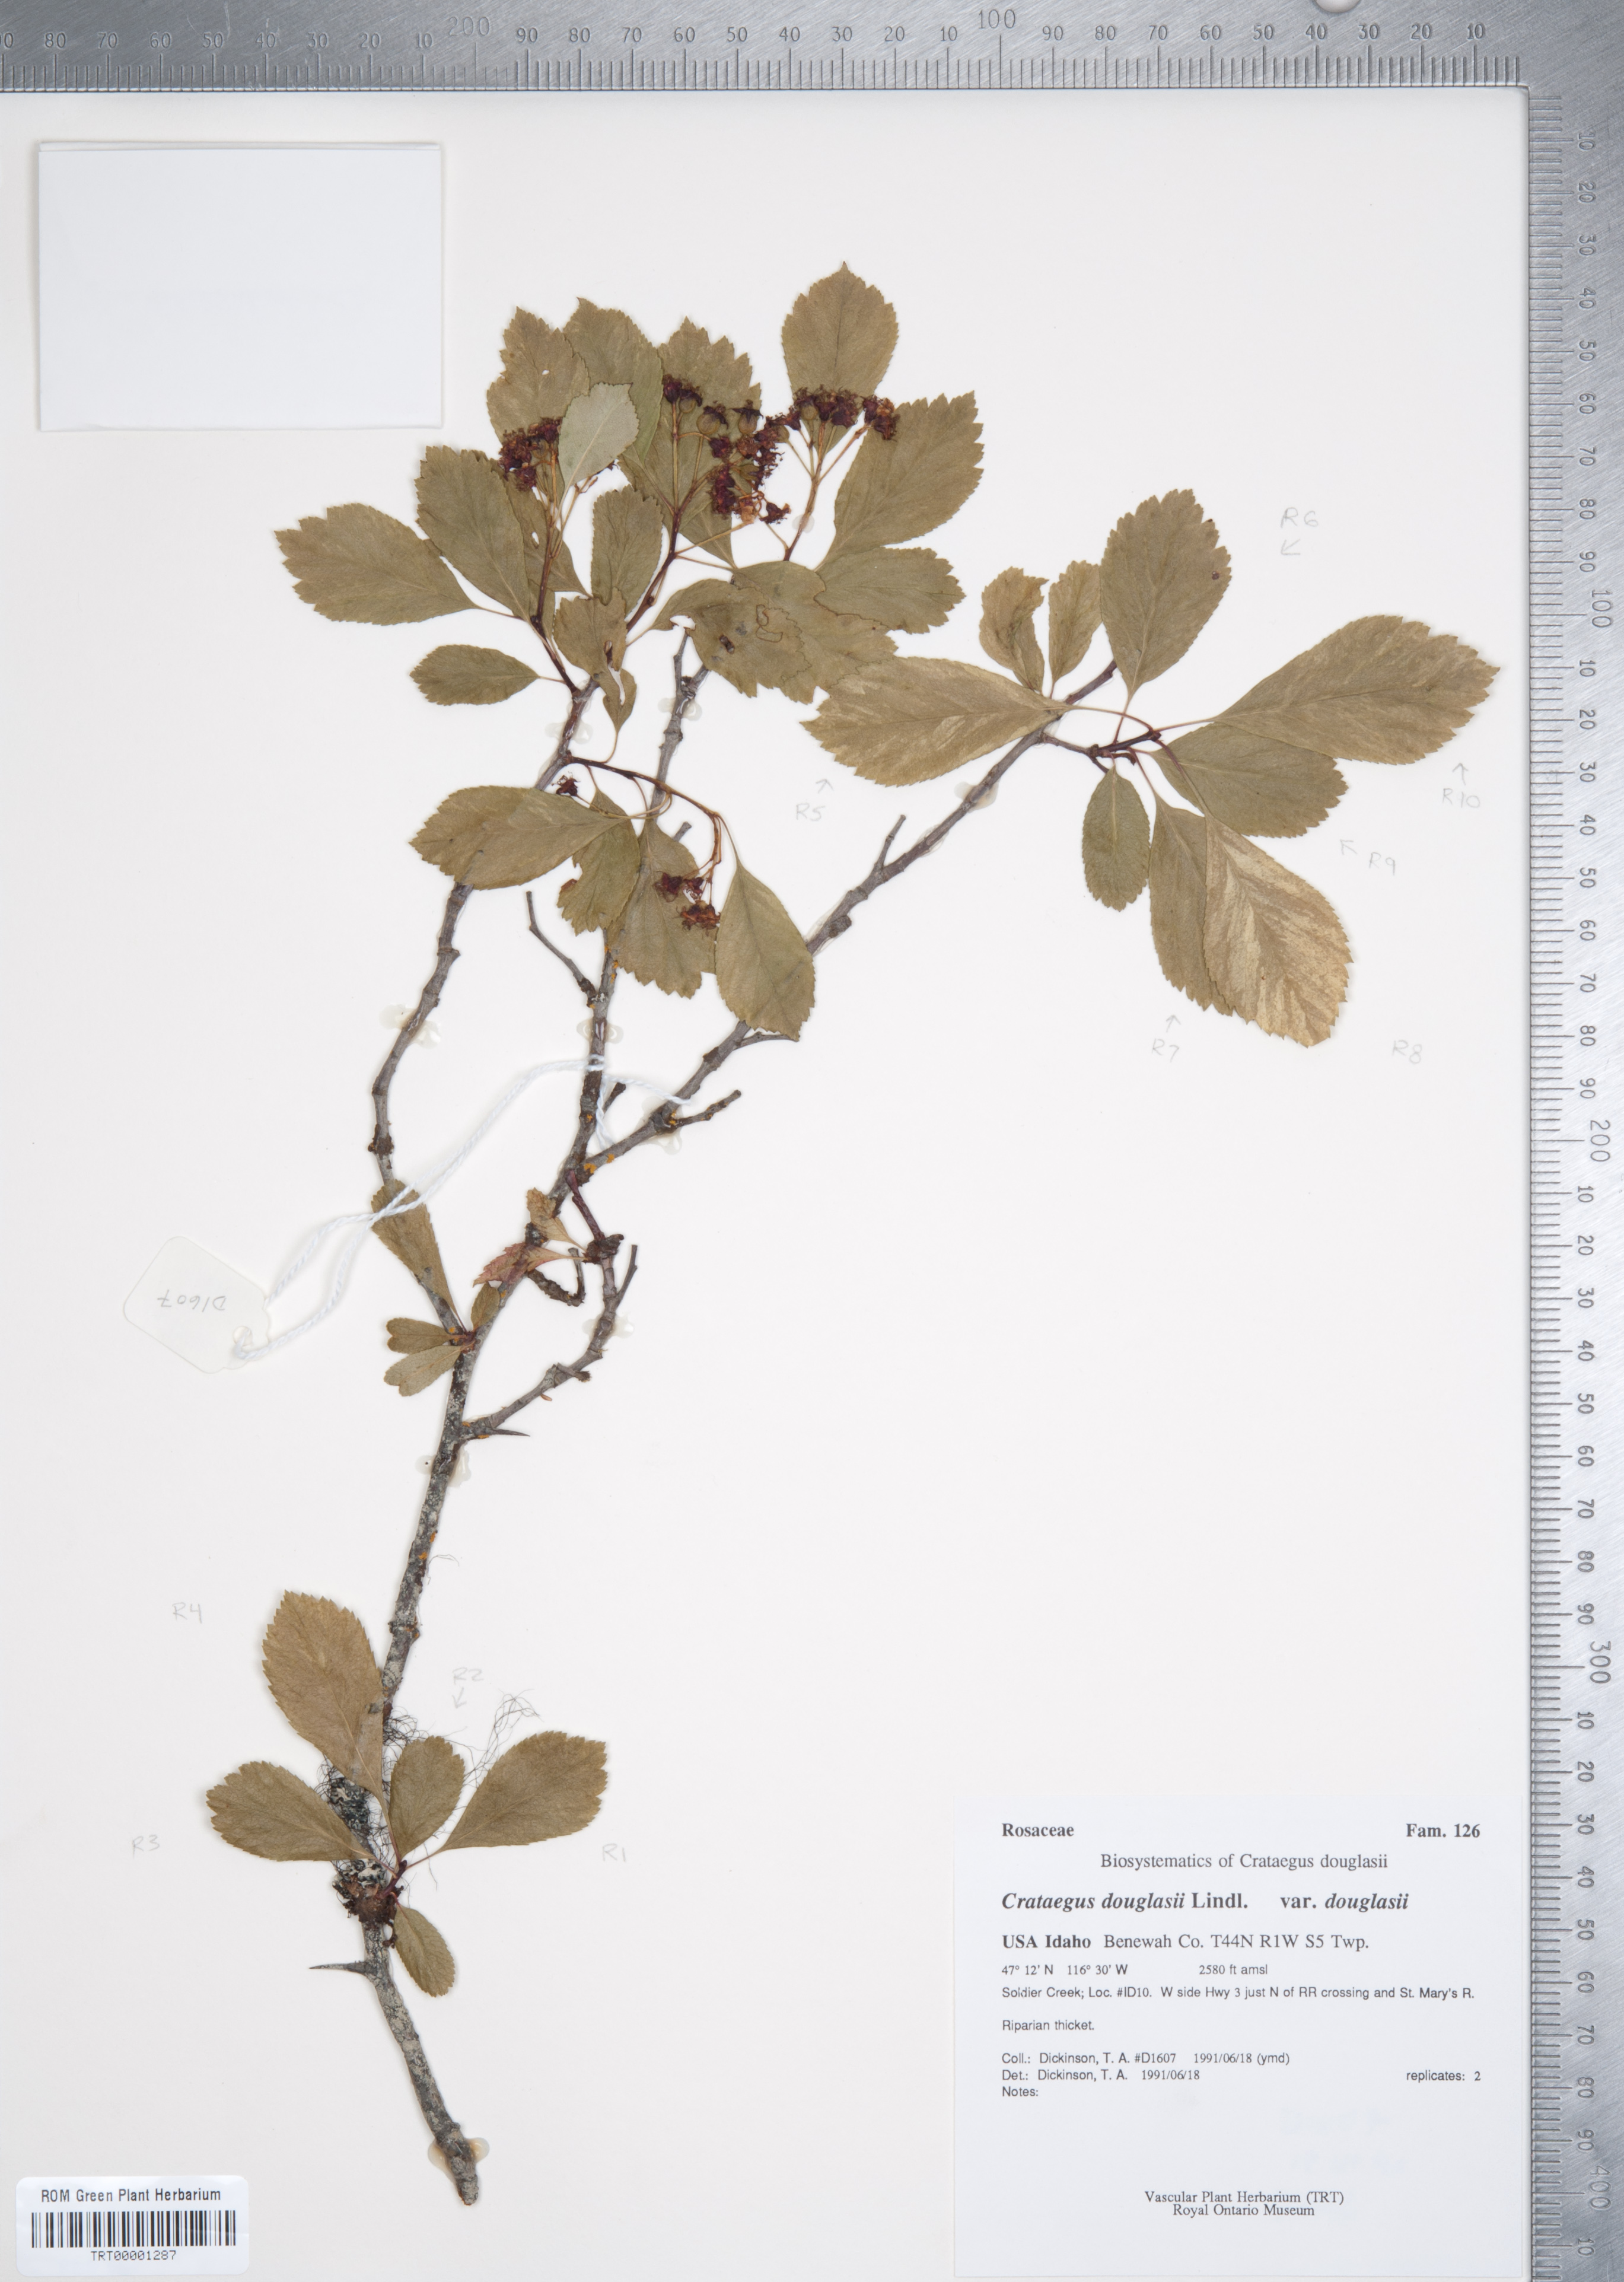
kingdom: Plantae
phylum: Tracheophyta
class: Magnoliopsida
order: Rosales
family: Rosaceae
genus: Crataegus
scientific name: Crataegus douglasii
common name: Black hawthorn
